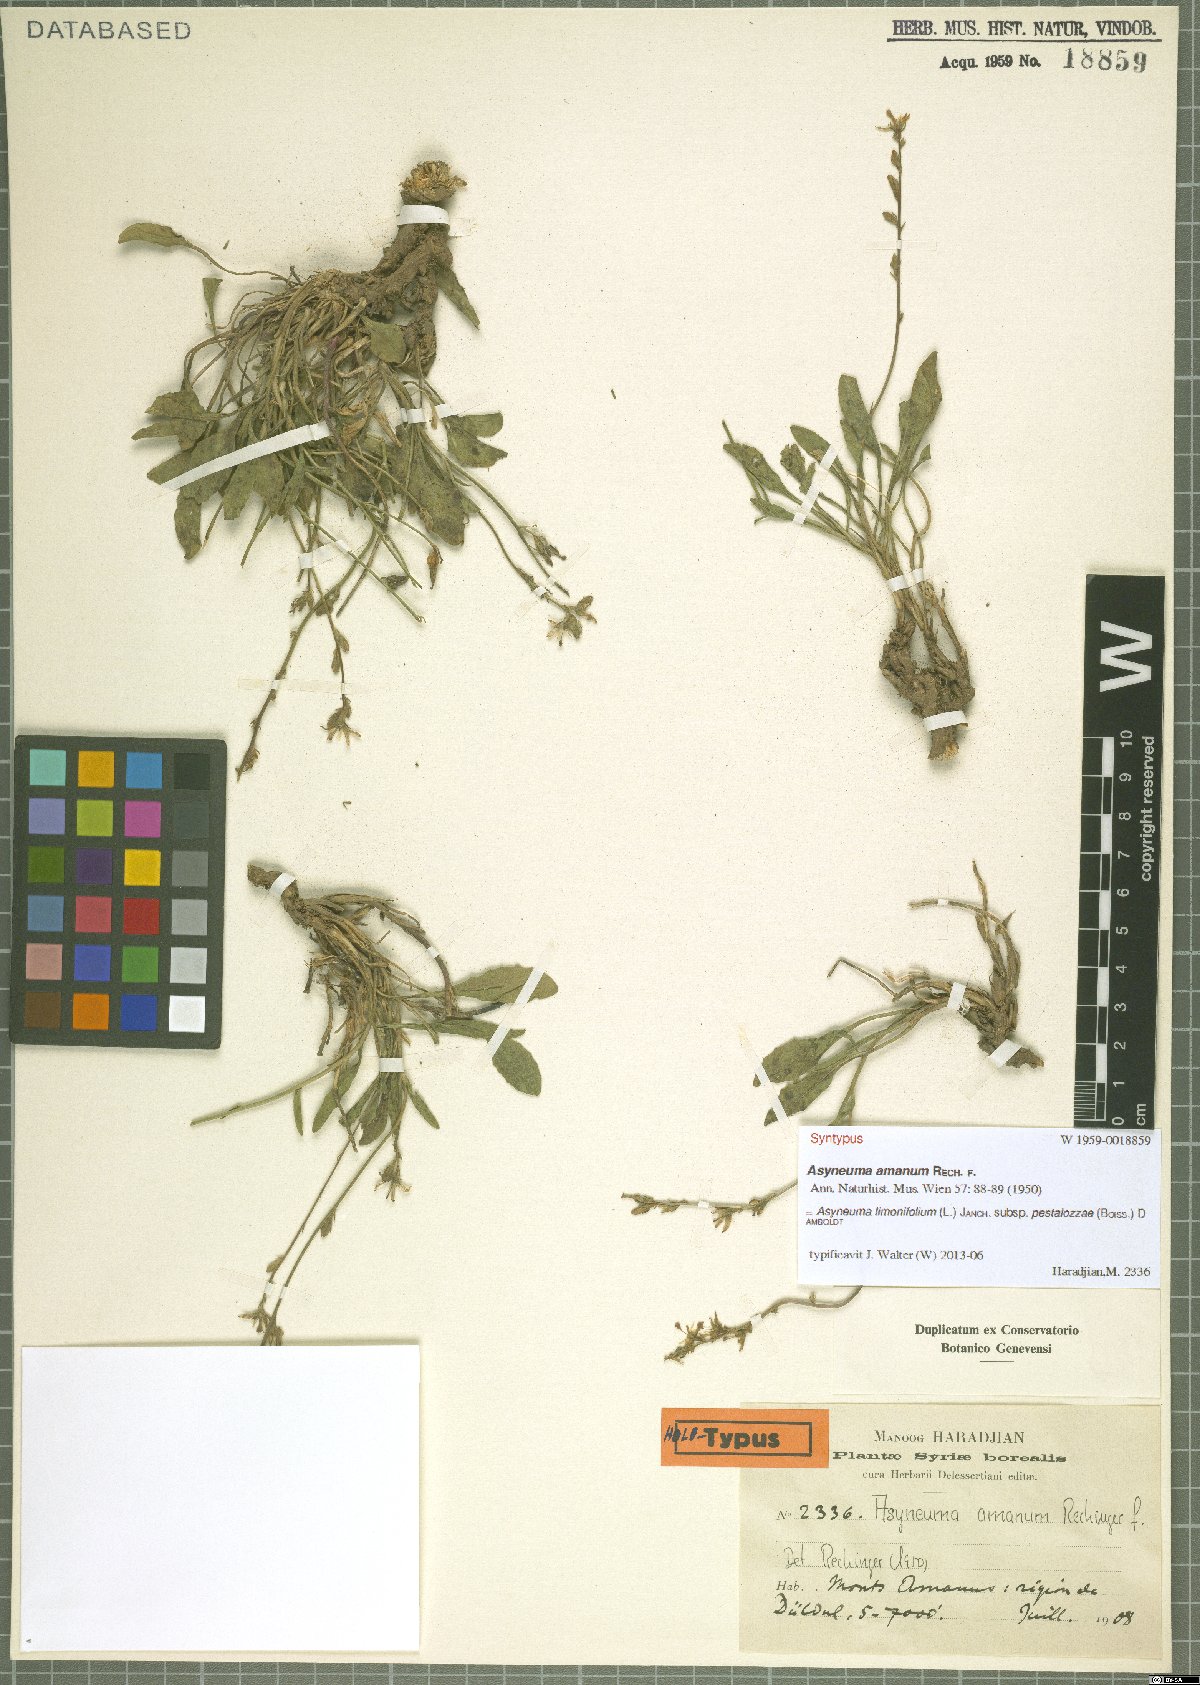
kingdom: Plantae
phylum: Tracheophyta
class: Magnoliopsida
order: Asterales
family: Campanulaceae
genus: Asyneuma
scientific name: Asyneuma limonifolium
